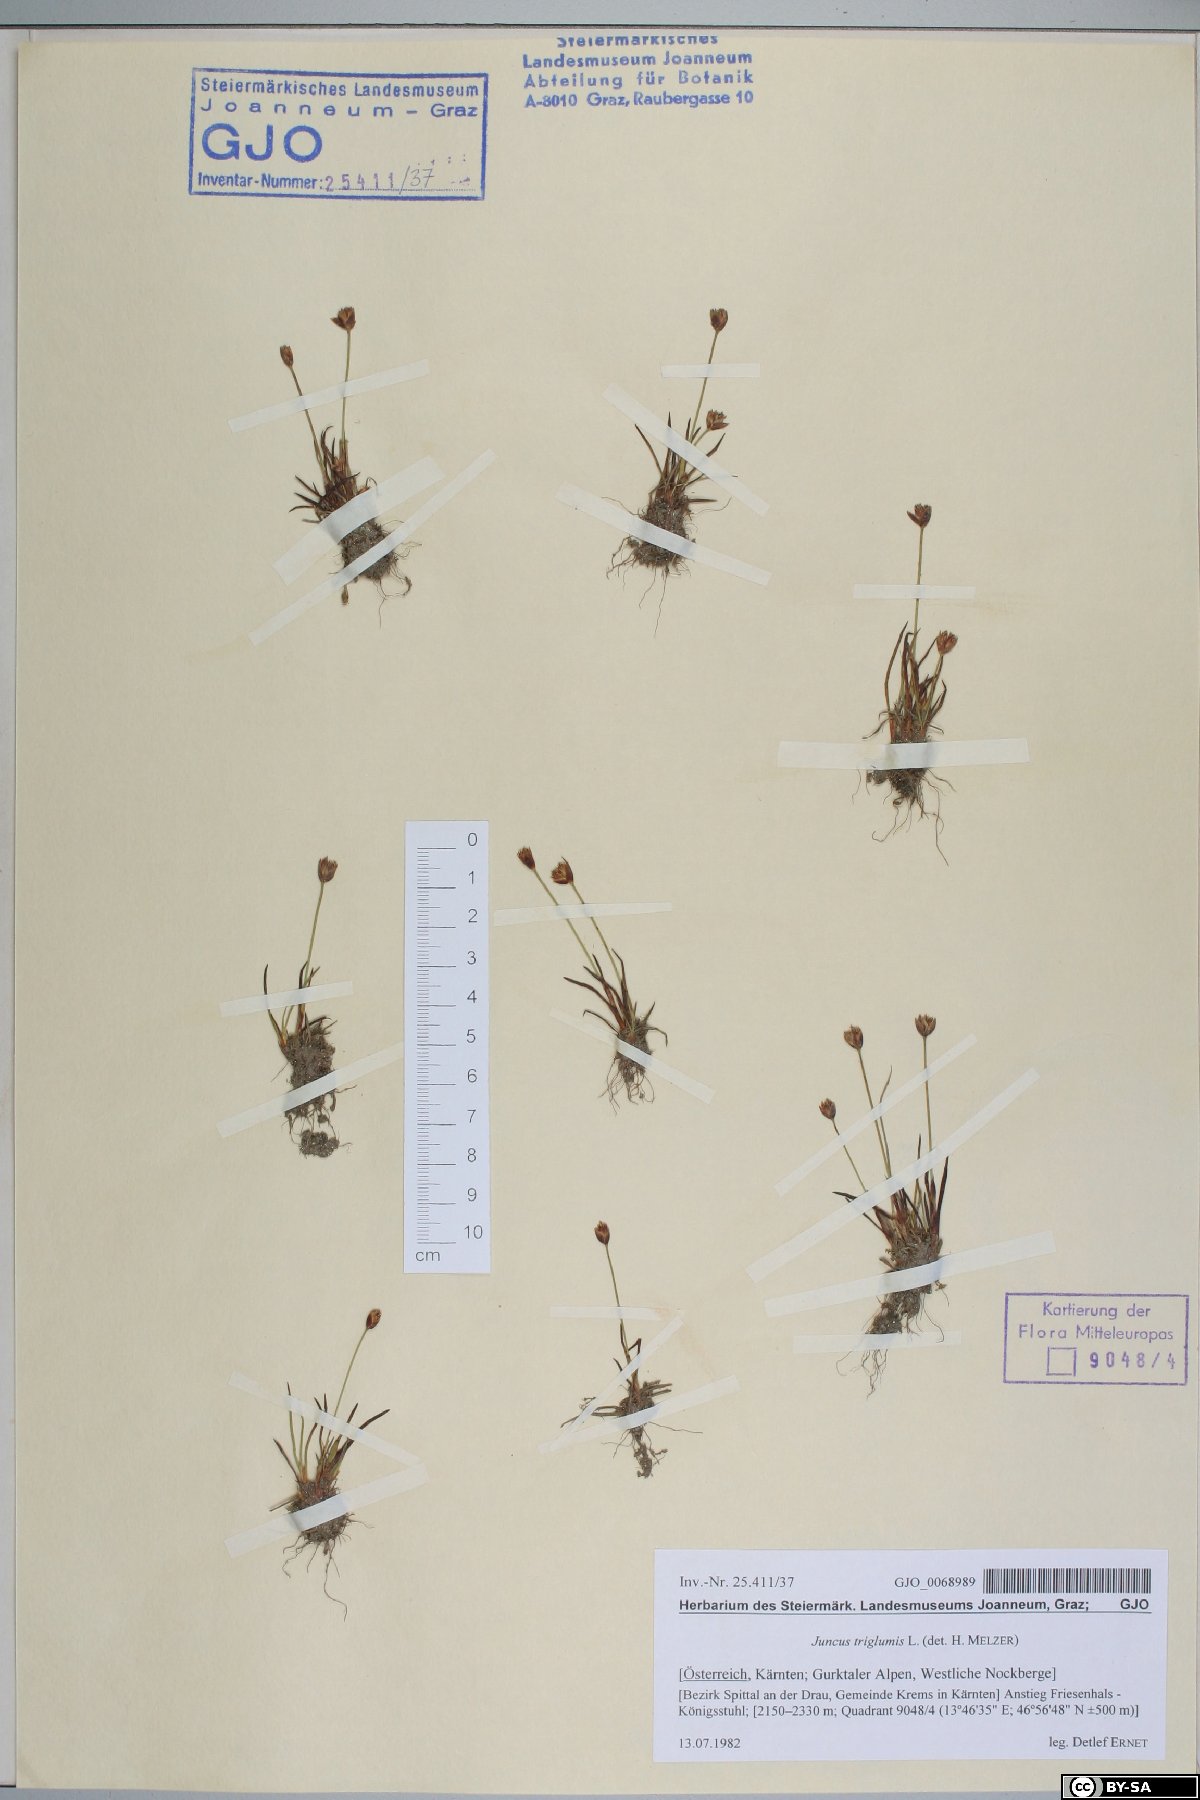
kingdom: Plantae
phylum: Tracheophyta
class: Liliopsida
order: Poales
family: Juncaceae
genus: Juncus
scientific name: Juncus triglumis
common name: Three-flowered rush
